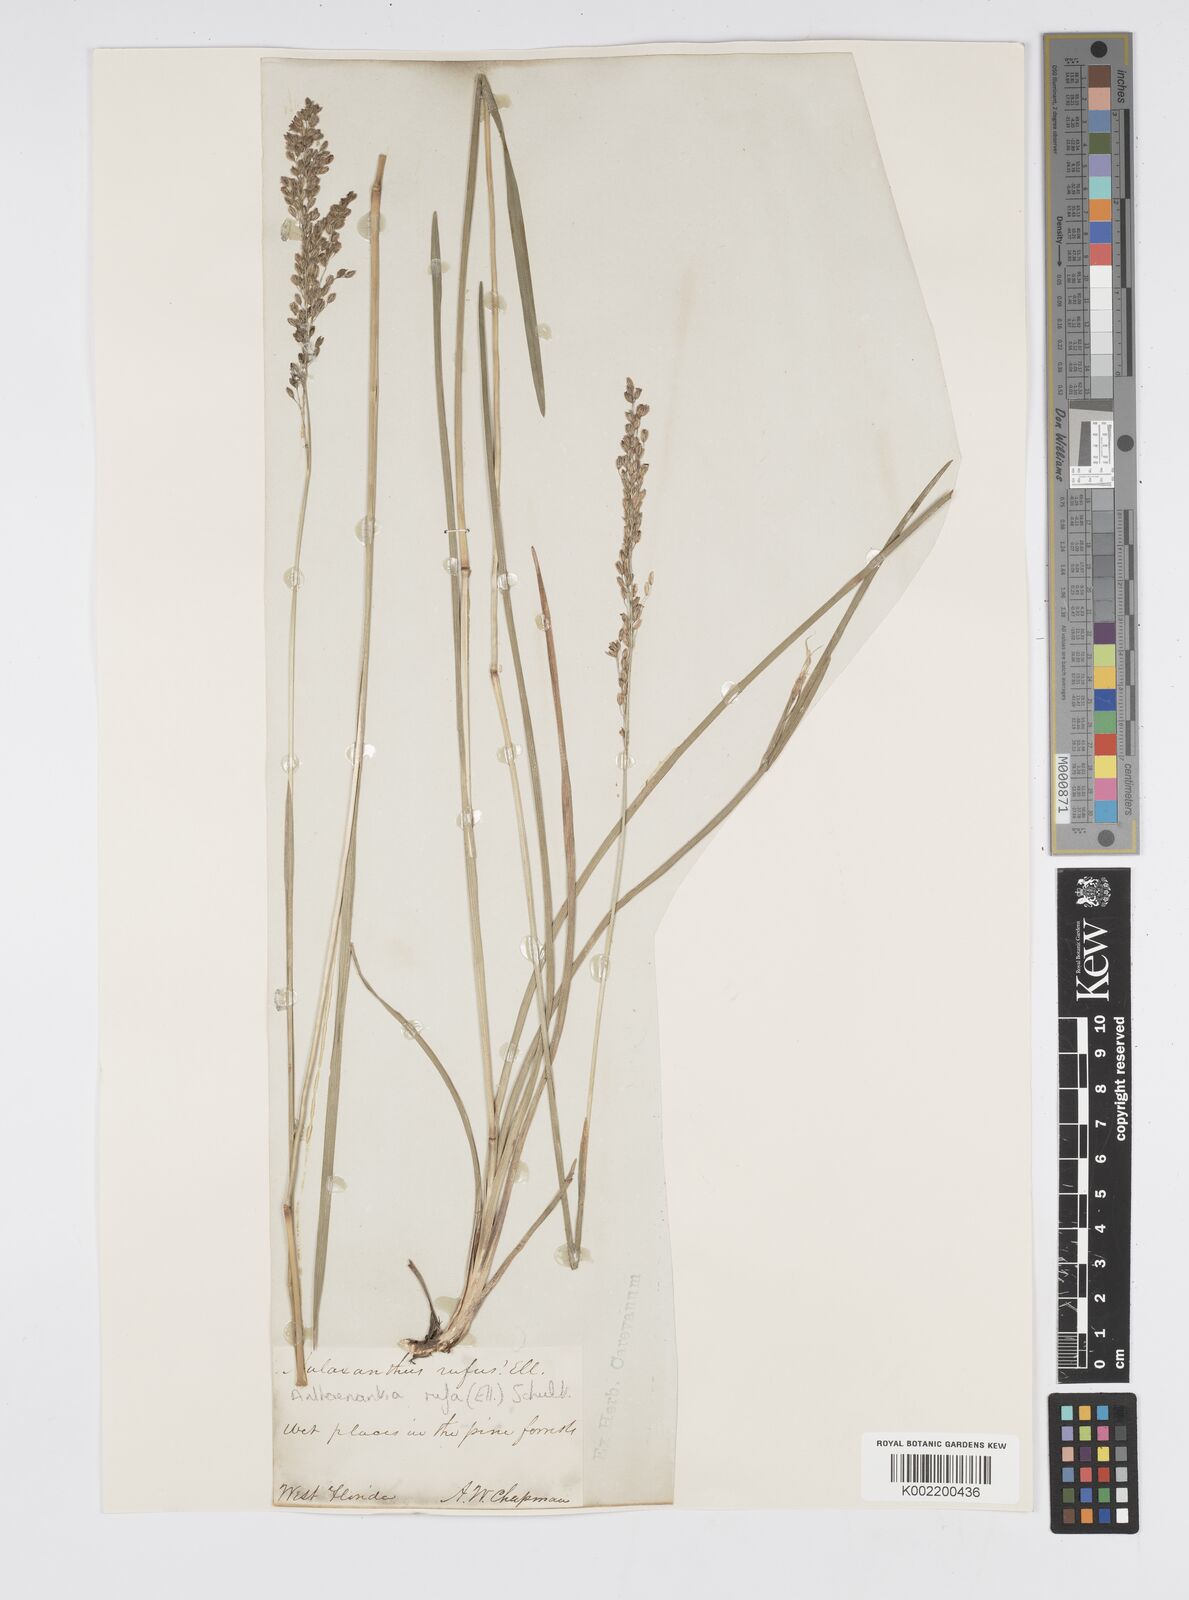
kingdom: Plantae
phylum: Tracheophyta
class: Liliopsida
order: Poales
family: Poaceae
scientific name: Poaceae
